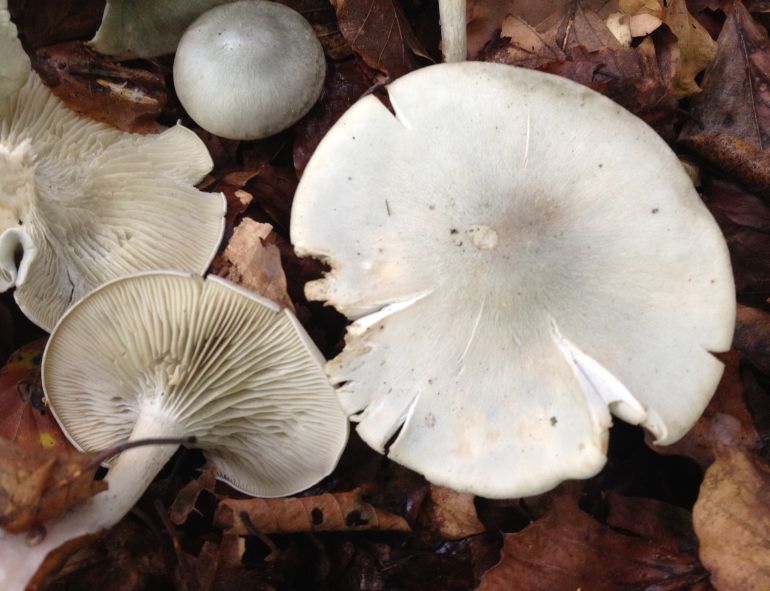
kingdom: Fungi
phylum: Basidiomycota
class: Agaricomycetes
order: Agaricales
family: Tricholomataceae
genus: Clitocybe
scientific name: Clitocybe odora
